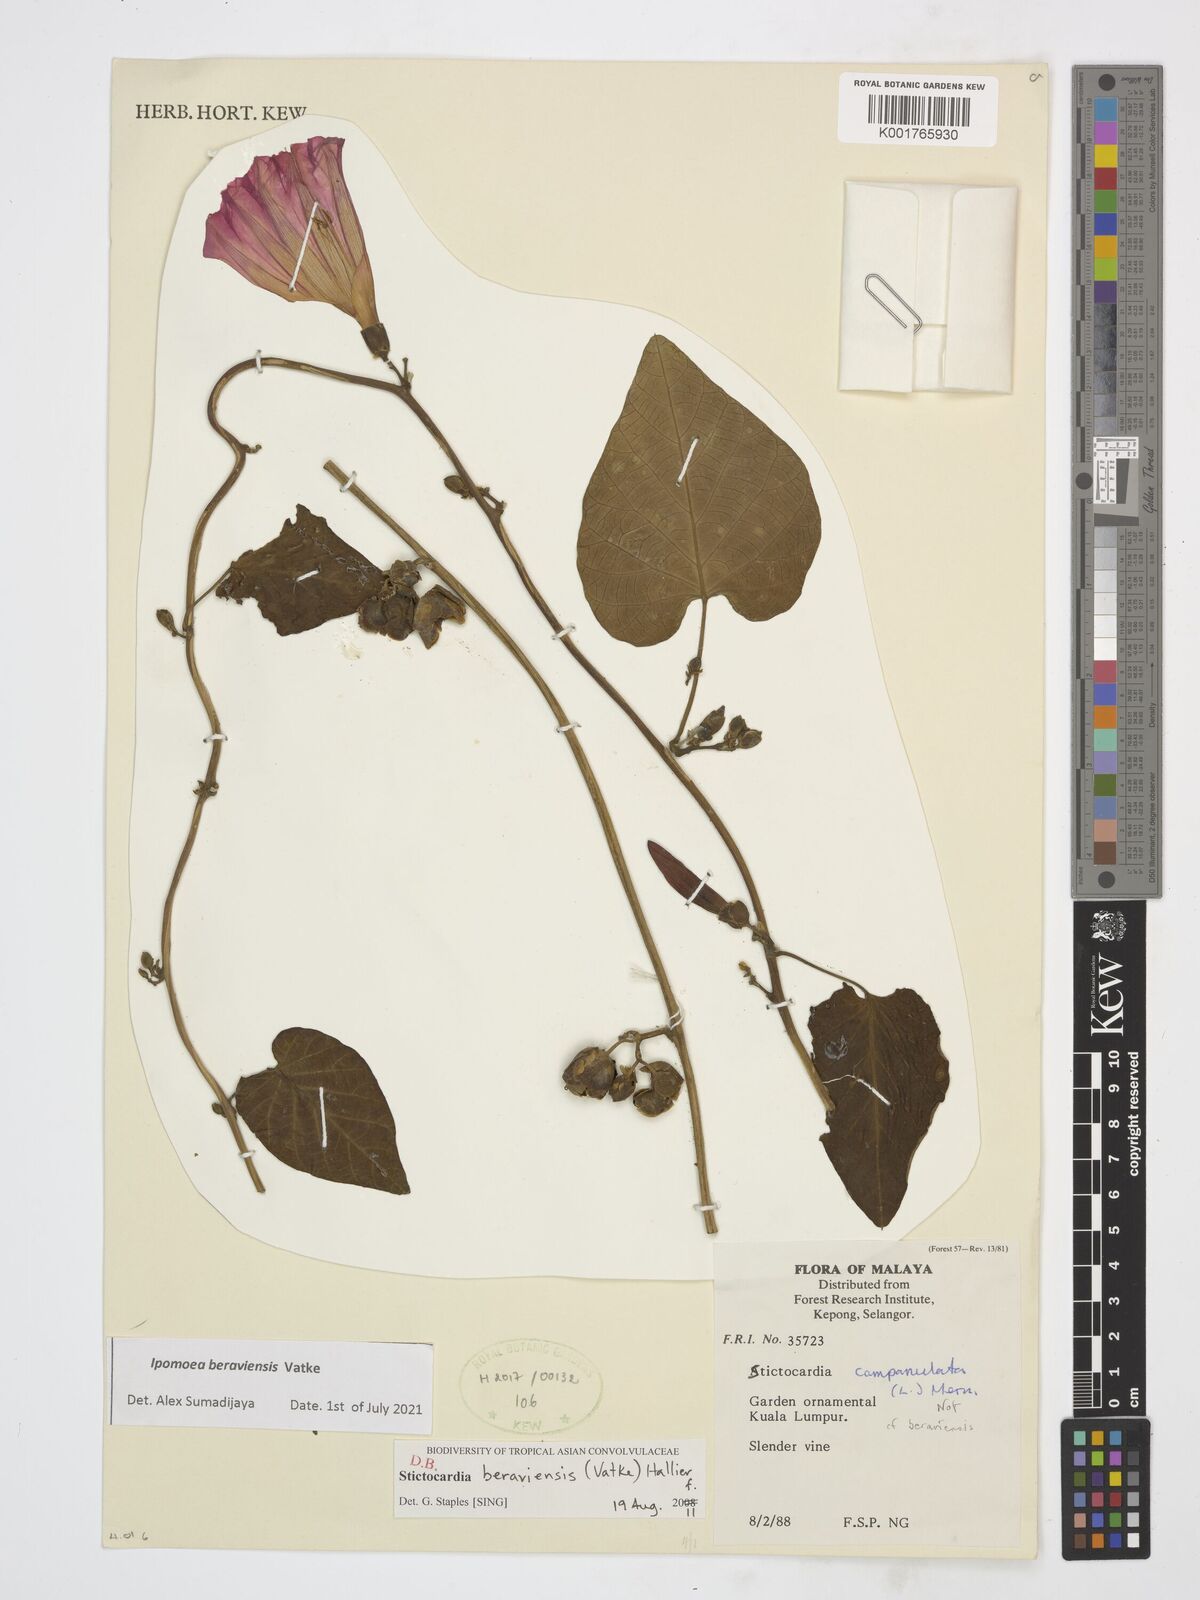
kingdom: Plantae
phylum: Tracheophyta
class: Magnoliopsida
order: Solanales
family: Convolvulaceae
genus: Stictocardia
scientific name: Stictocardia beraviensis
